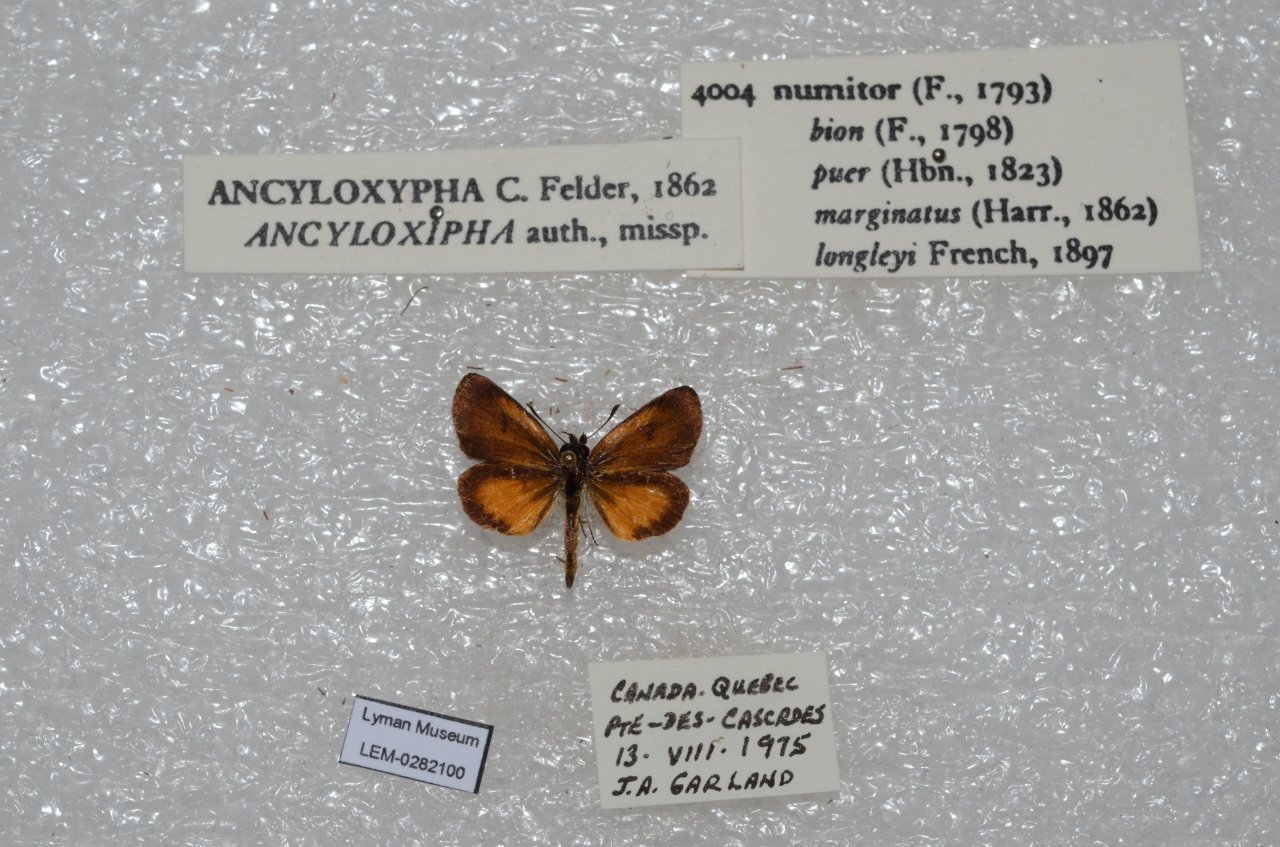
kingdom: Animalia
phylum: Arthropoda
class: Insecta
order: Lepidoptera
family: Hesperiidae
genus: Ancyloxypha
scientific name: Ancyloxypha numitor
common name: Least Skipper
